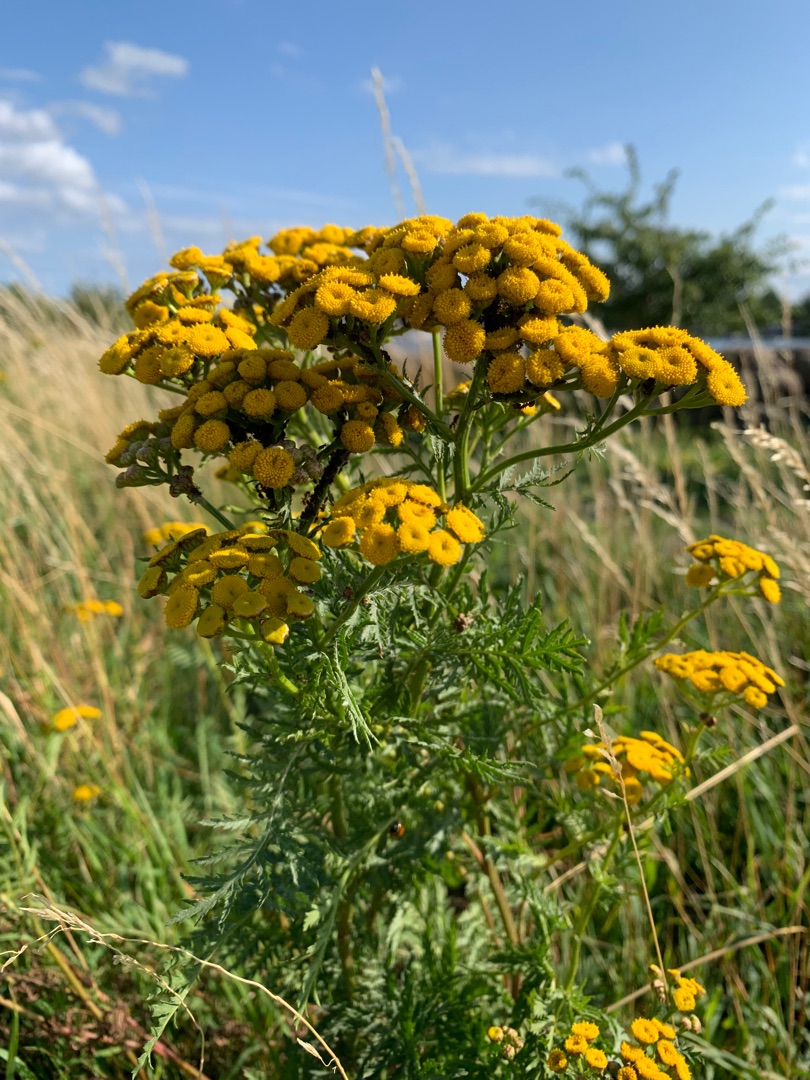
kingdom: Plantae
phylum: Tracheophyta
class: Magnoliopsida
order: Asterales
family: Asteraceae
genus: Tanacetum
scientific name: Tanacetum vulgare
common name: Rejnfan
